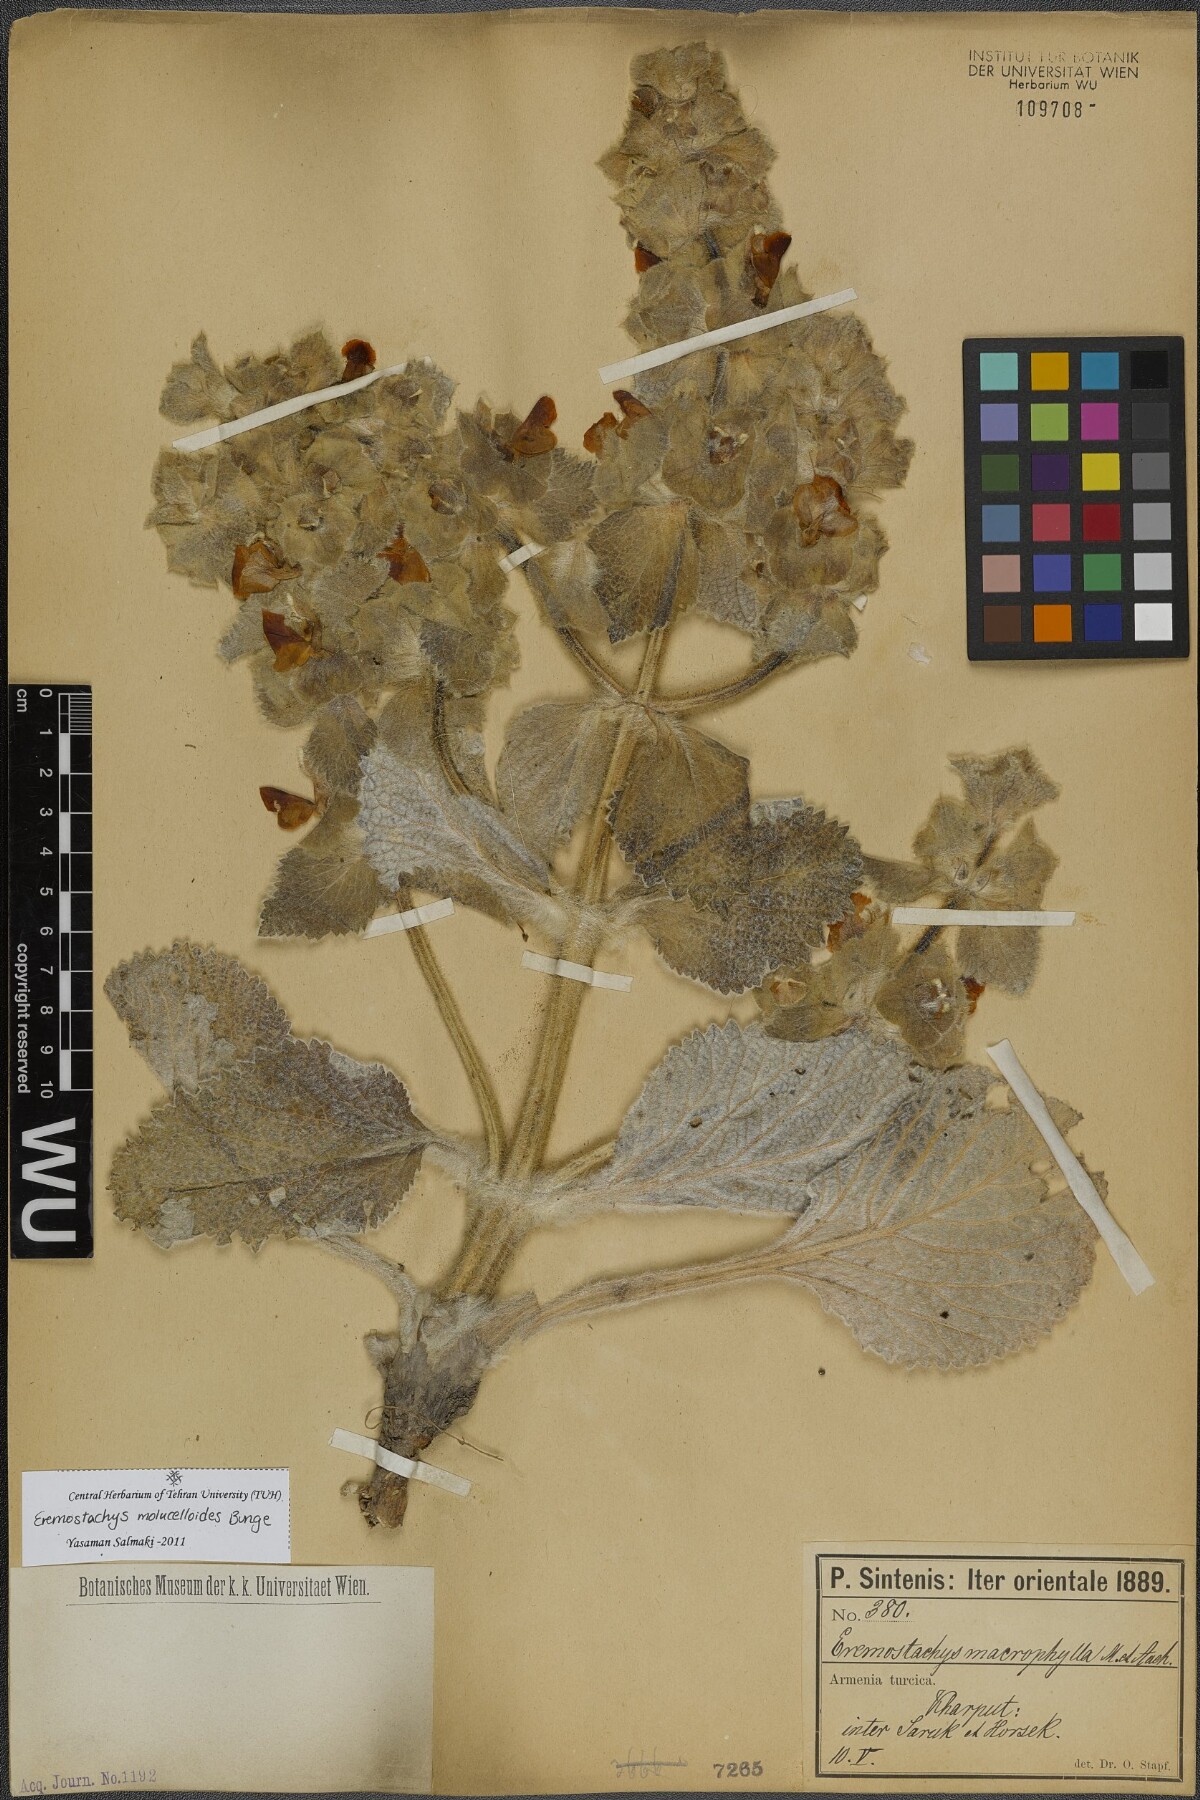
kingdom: Plantae
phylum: Tracheophyta
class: Magnoliopsida
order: Lamiales
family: Lamiaceae
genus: Phlomoides
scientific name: Phlomoides molucelloides
